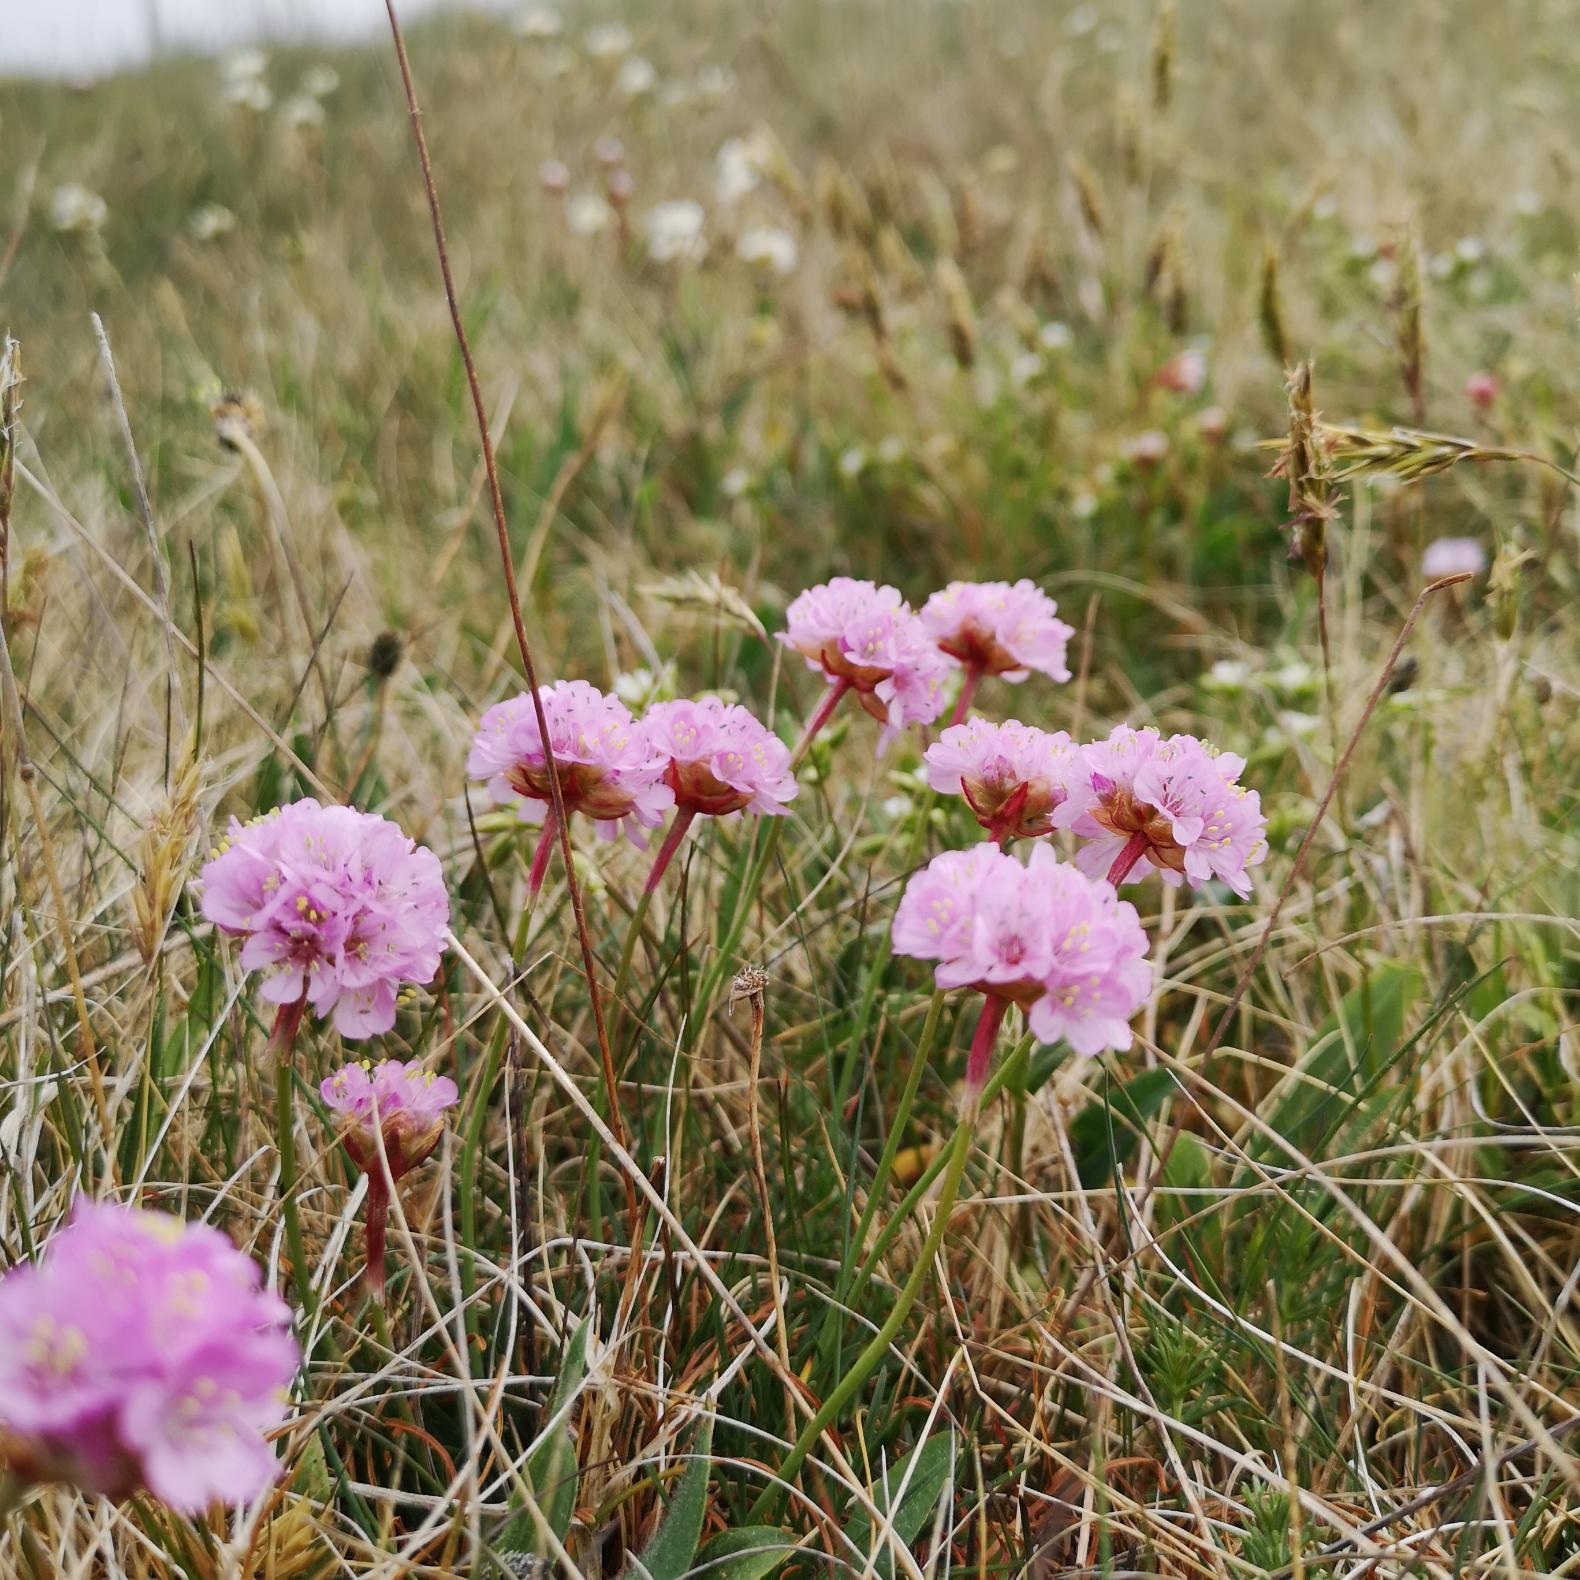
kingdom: Plantae
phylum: Tracheophyta
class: Magnoliopsida
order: Caryophyllales
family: Plumbaginaceae
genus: Armeria
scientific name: Armeria maritima
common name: Engelskgræs
